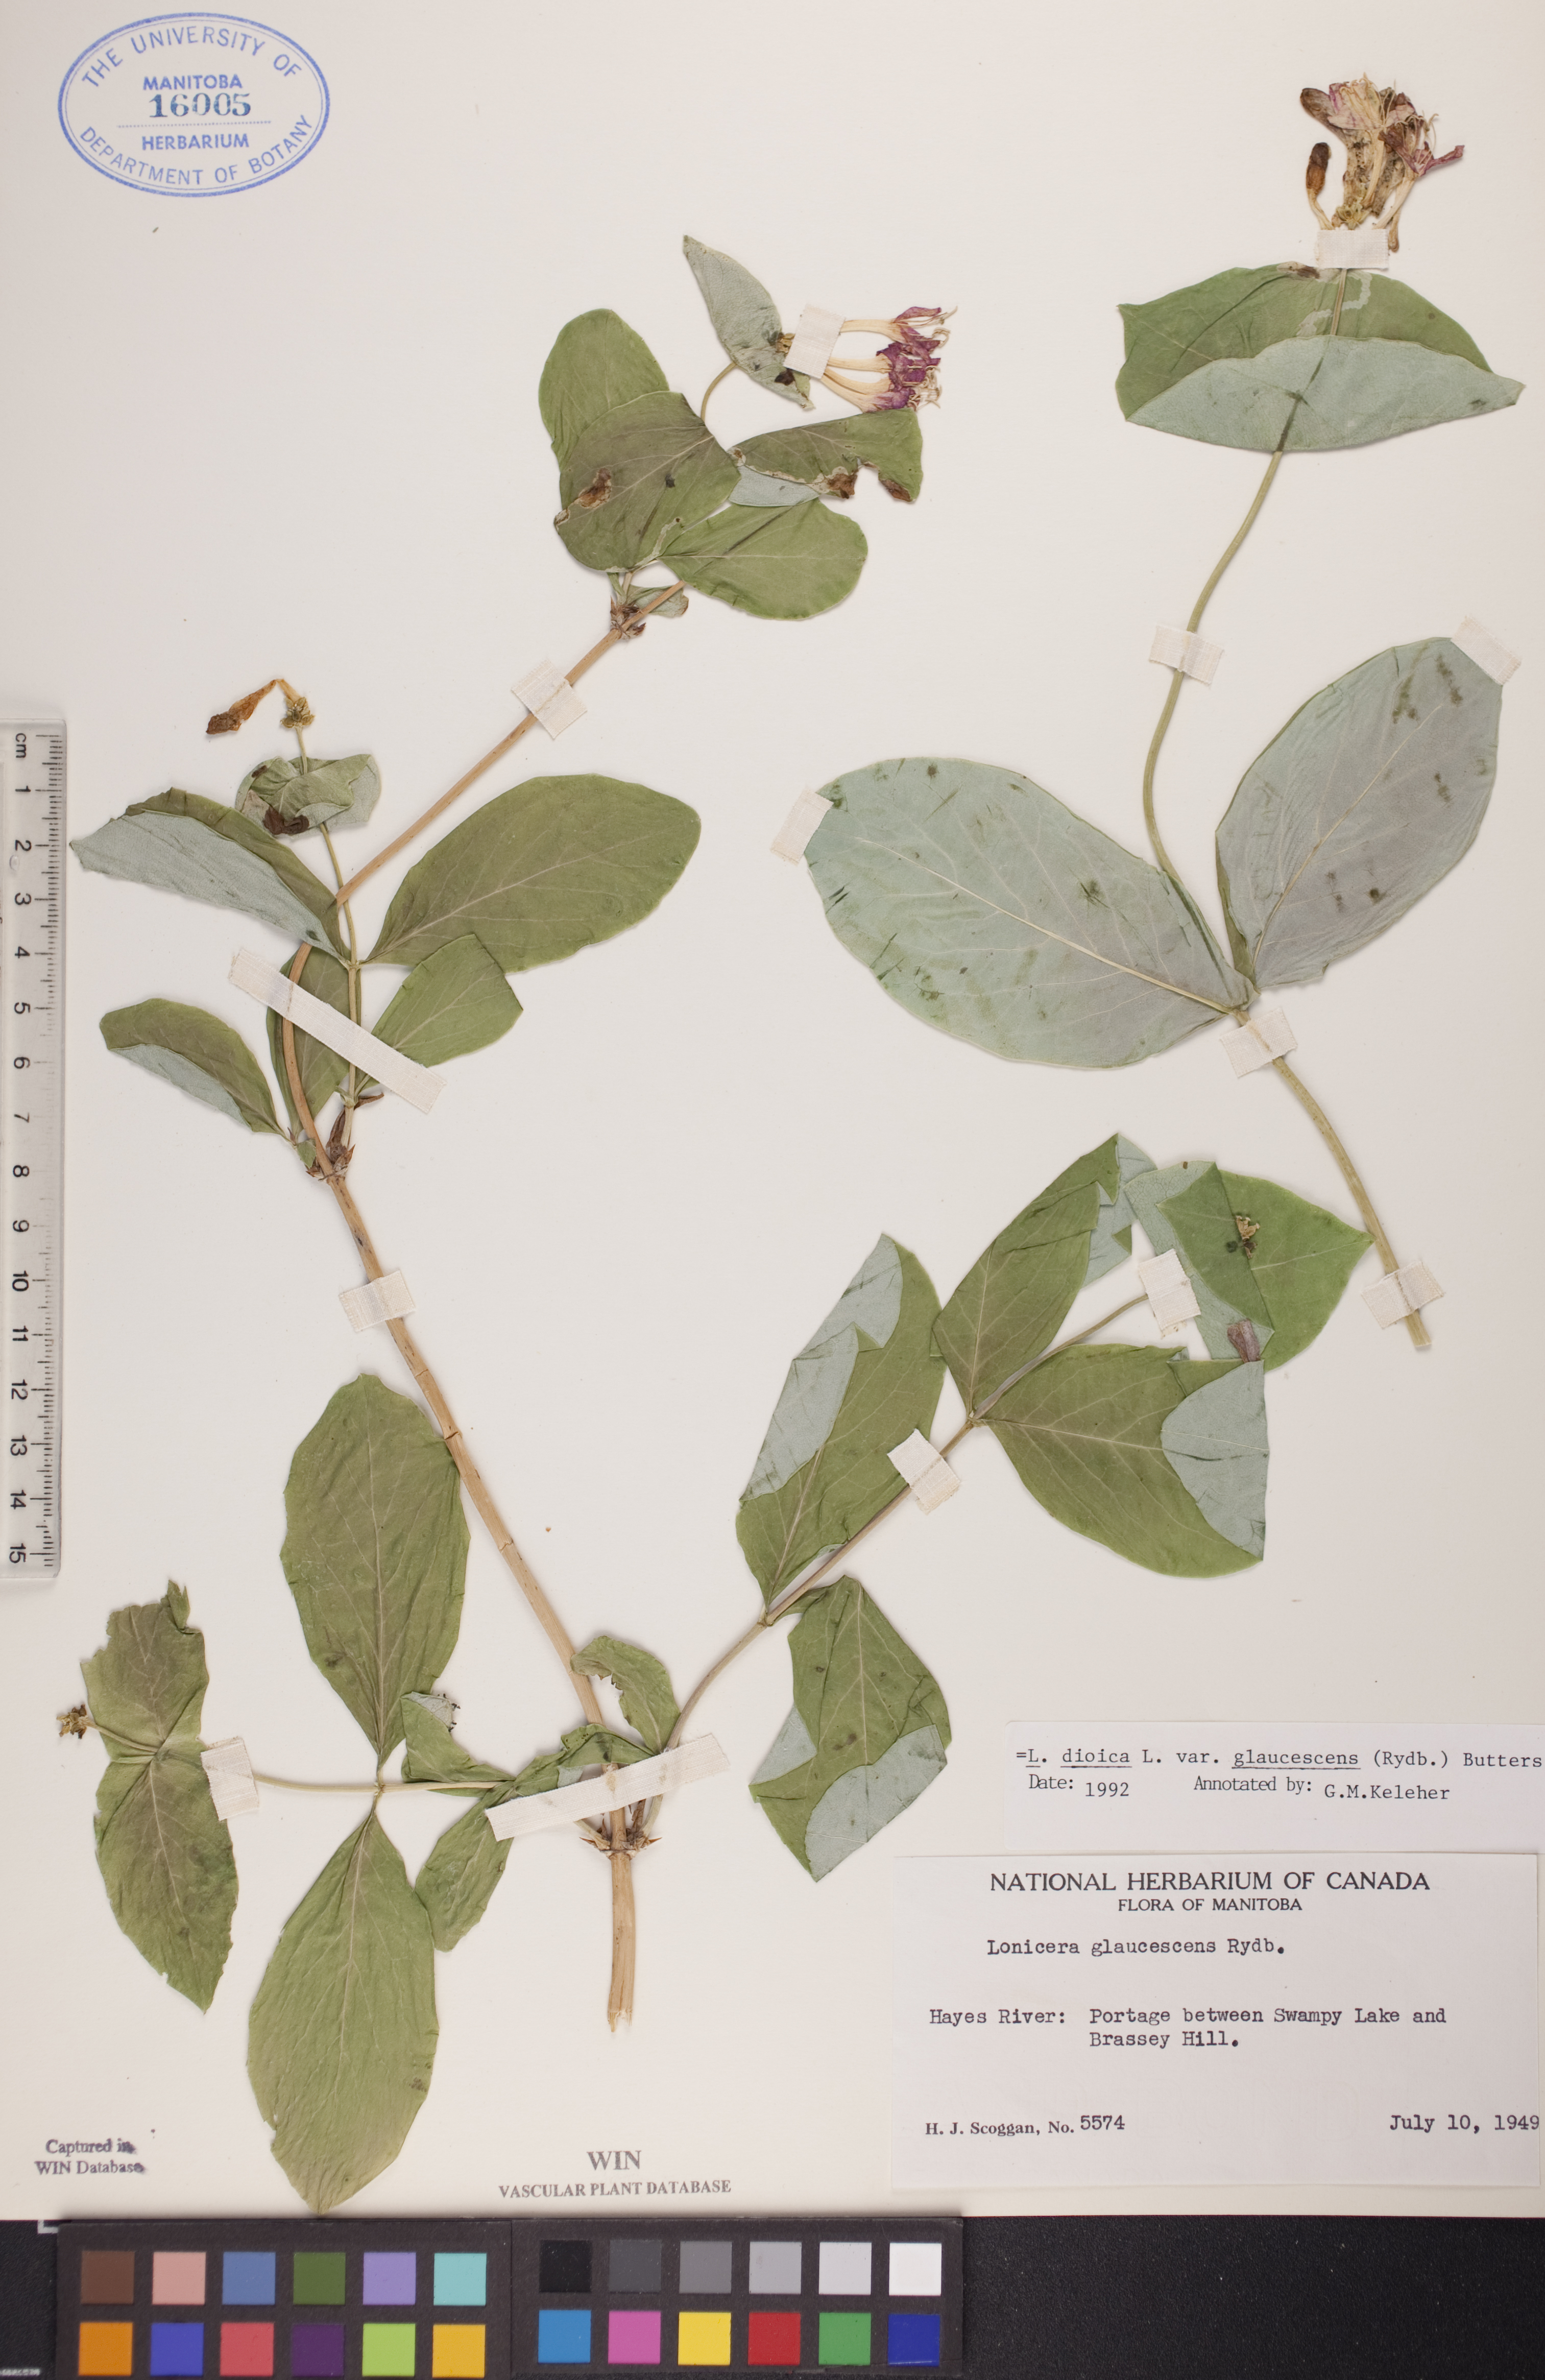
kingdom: Plantae
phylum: Tracheophyta
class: Magnoliopsida
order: Dipsacales
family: Caprifoliaceae
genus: Lonicera
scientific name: Lonicera dioica
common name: Limber honeysuckle
